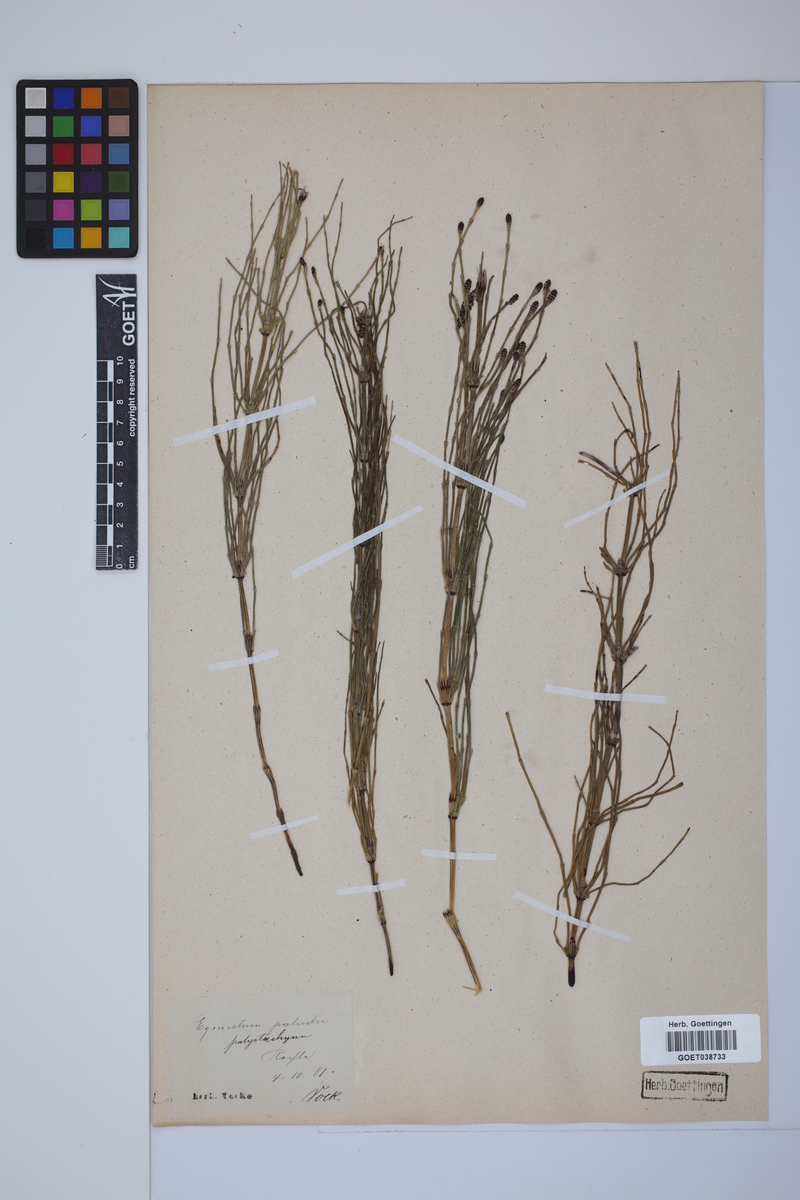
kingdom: Plantae
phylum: Tracheophyta
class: Polypodiopsida
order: Equisetales
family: Equisetaceae
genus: Equisetum
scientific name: Equisetum palustre
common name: Marsh horsetail
